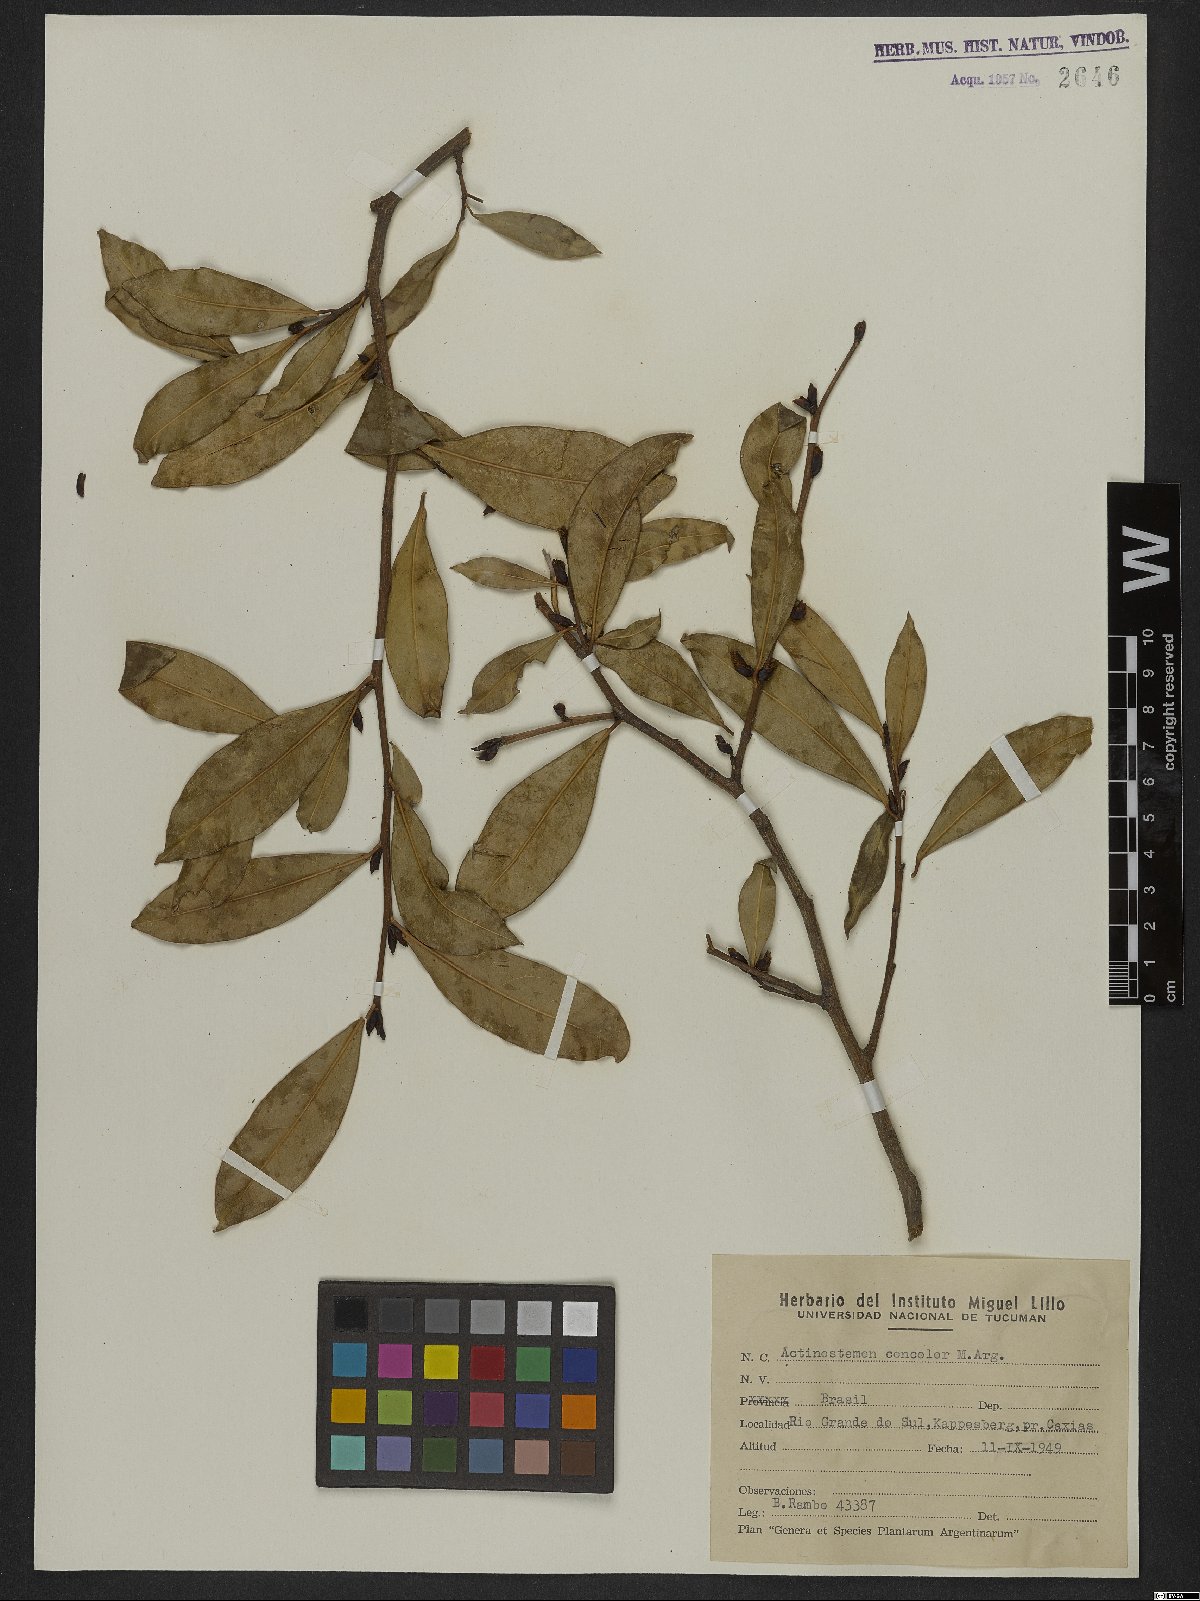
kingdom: Plantae
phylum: Tracheophyta
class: Magnoliopsida
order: Malpighiales
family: Euphorbiaceae
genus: Actinostemon
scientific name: Actinostemon concolor
